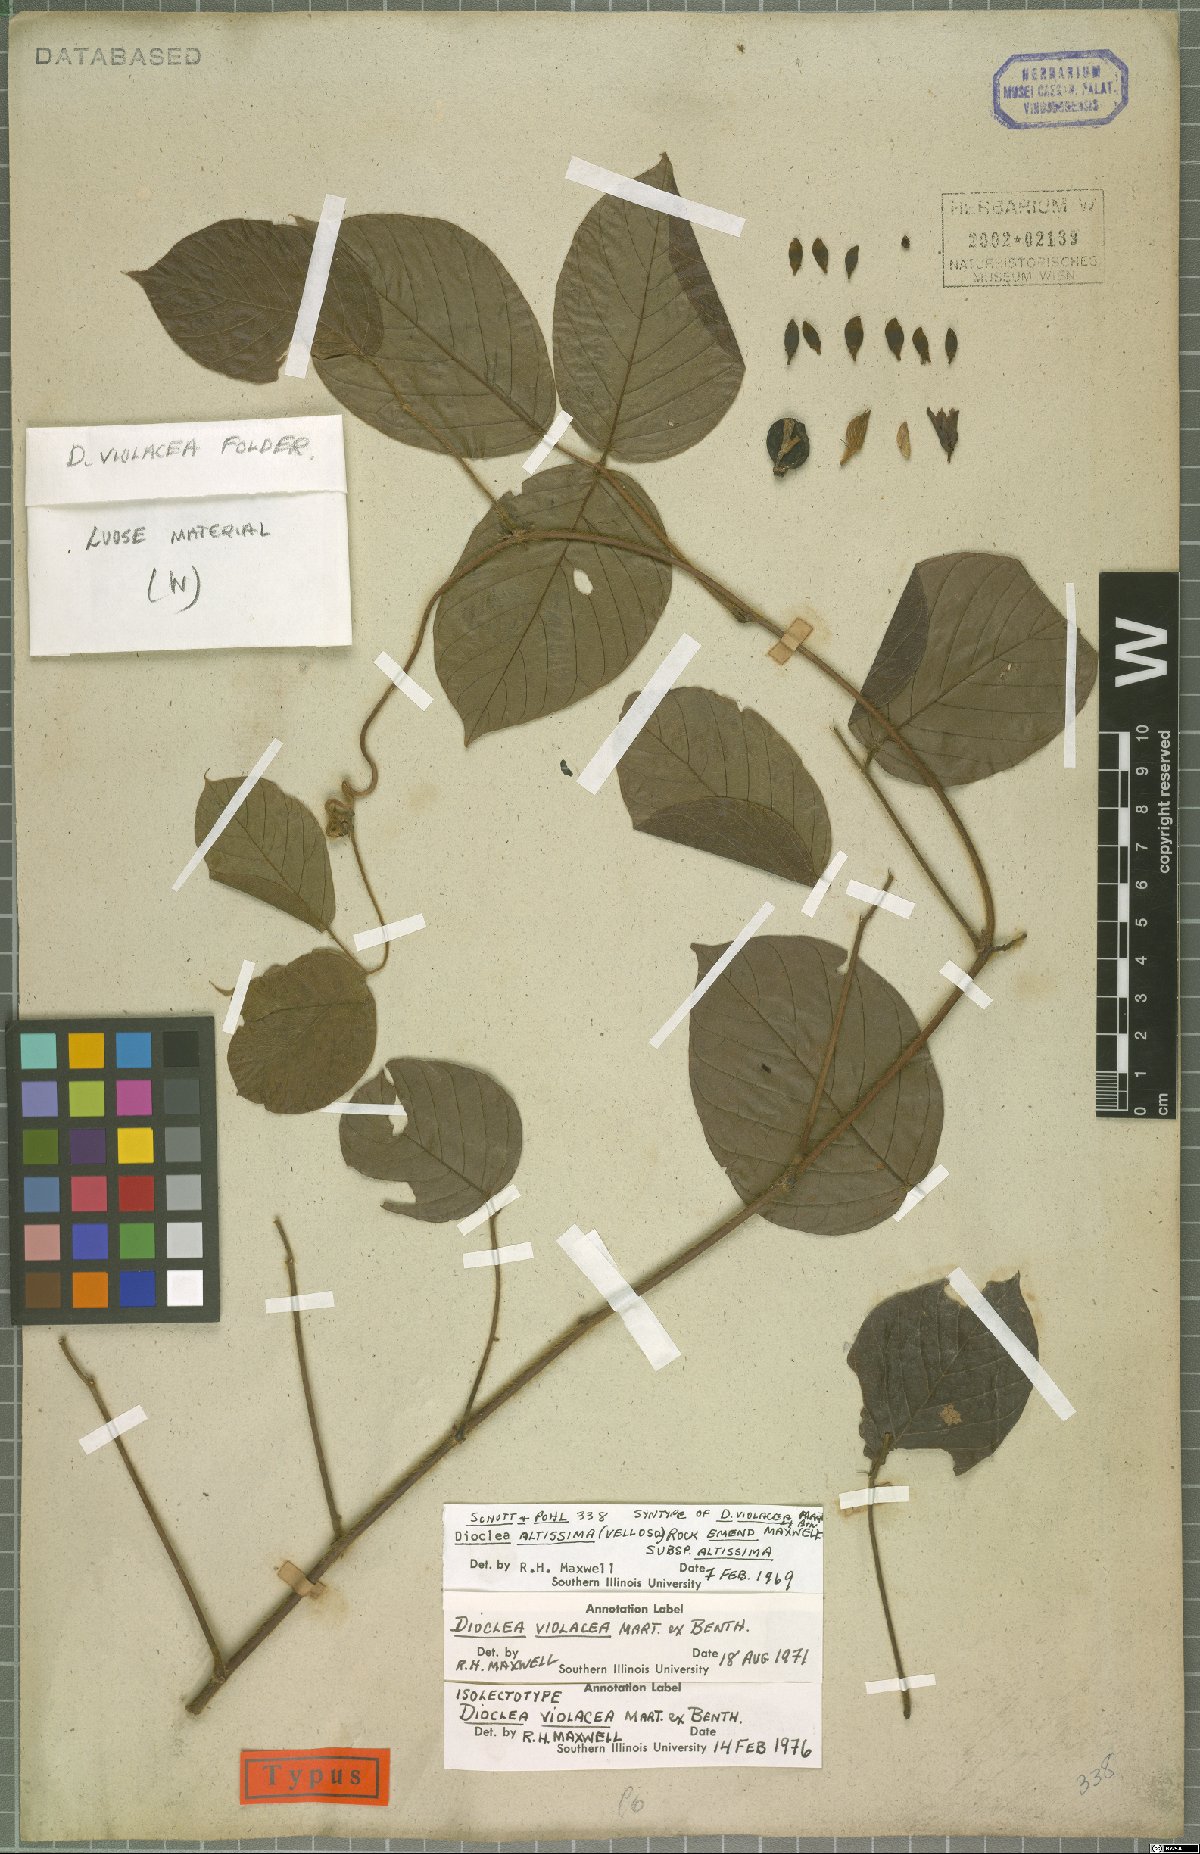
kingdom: Plantae
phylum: Tracheophyta
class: Magnoliopsida
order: Fabales
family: Fabaceae
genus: Macropsychanthus
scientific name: Macropsychanthus violaceus
